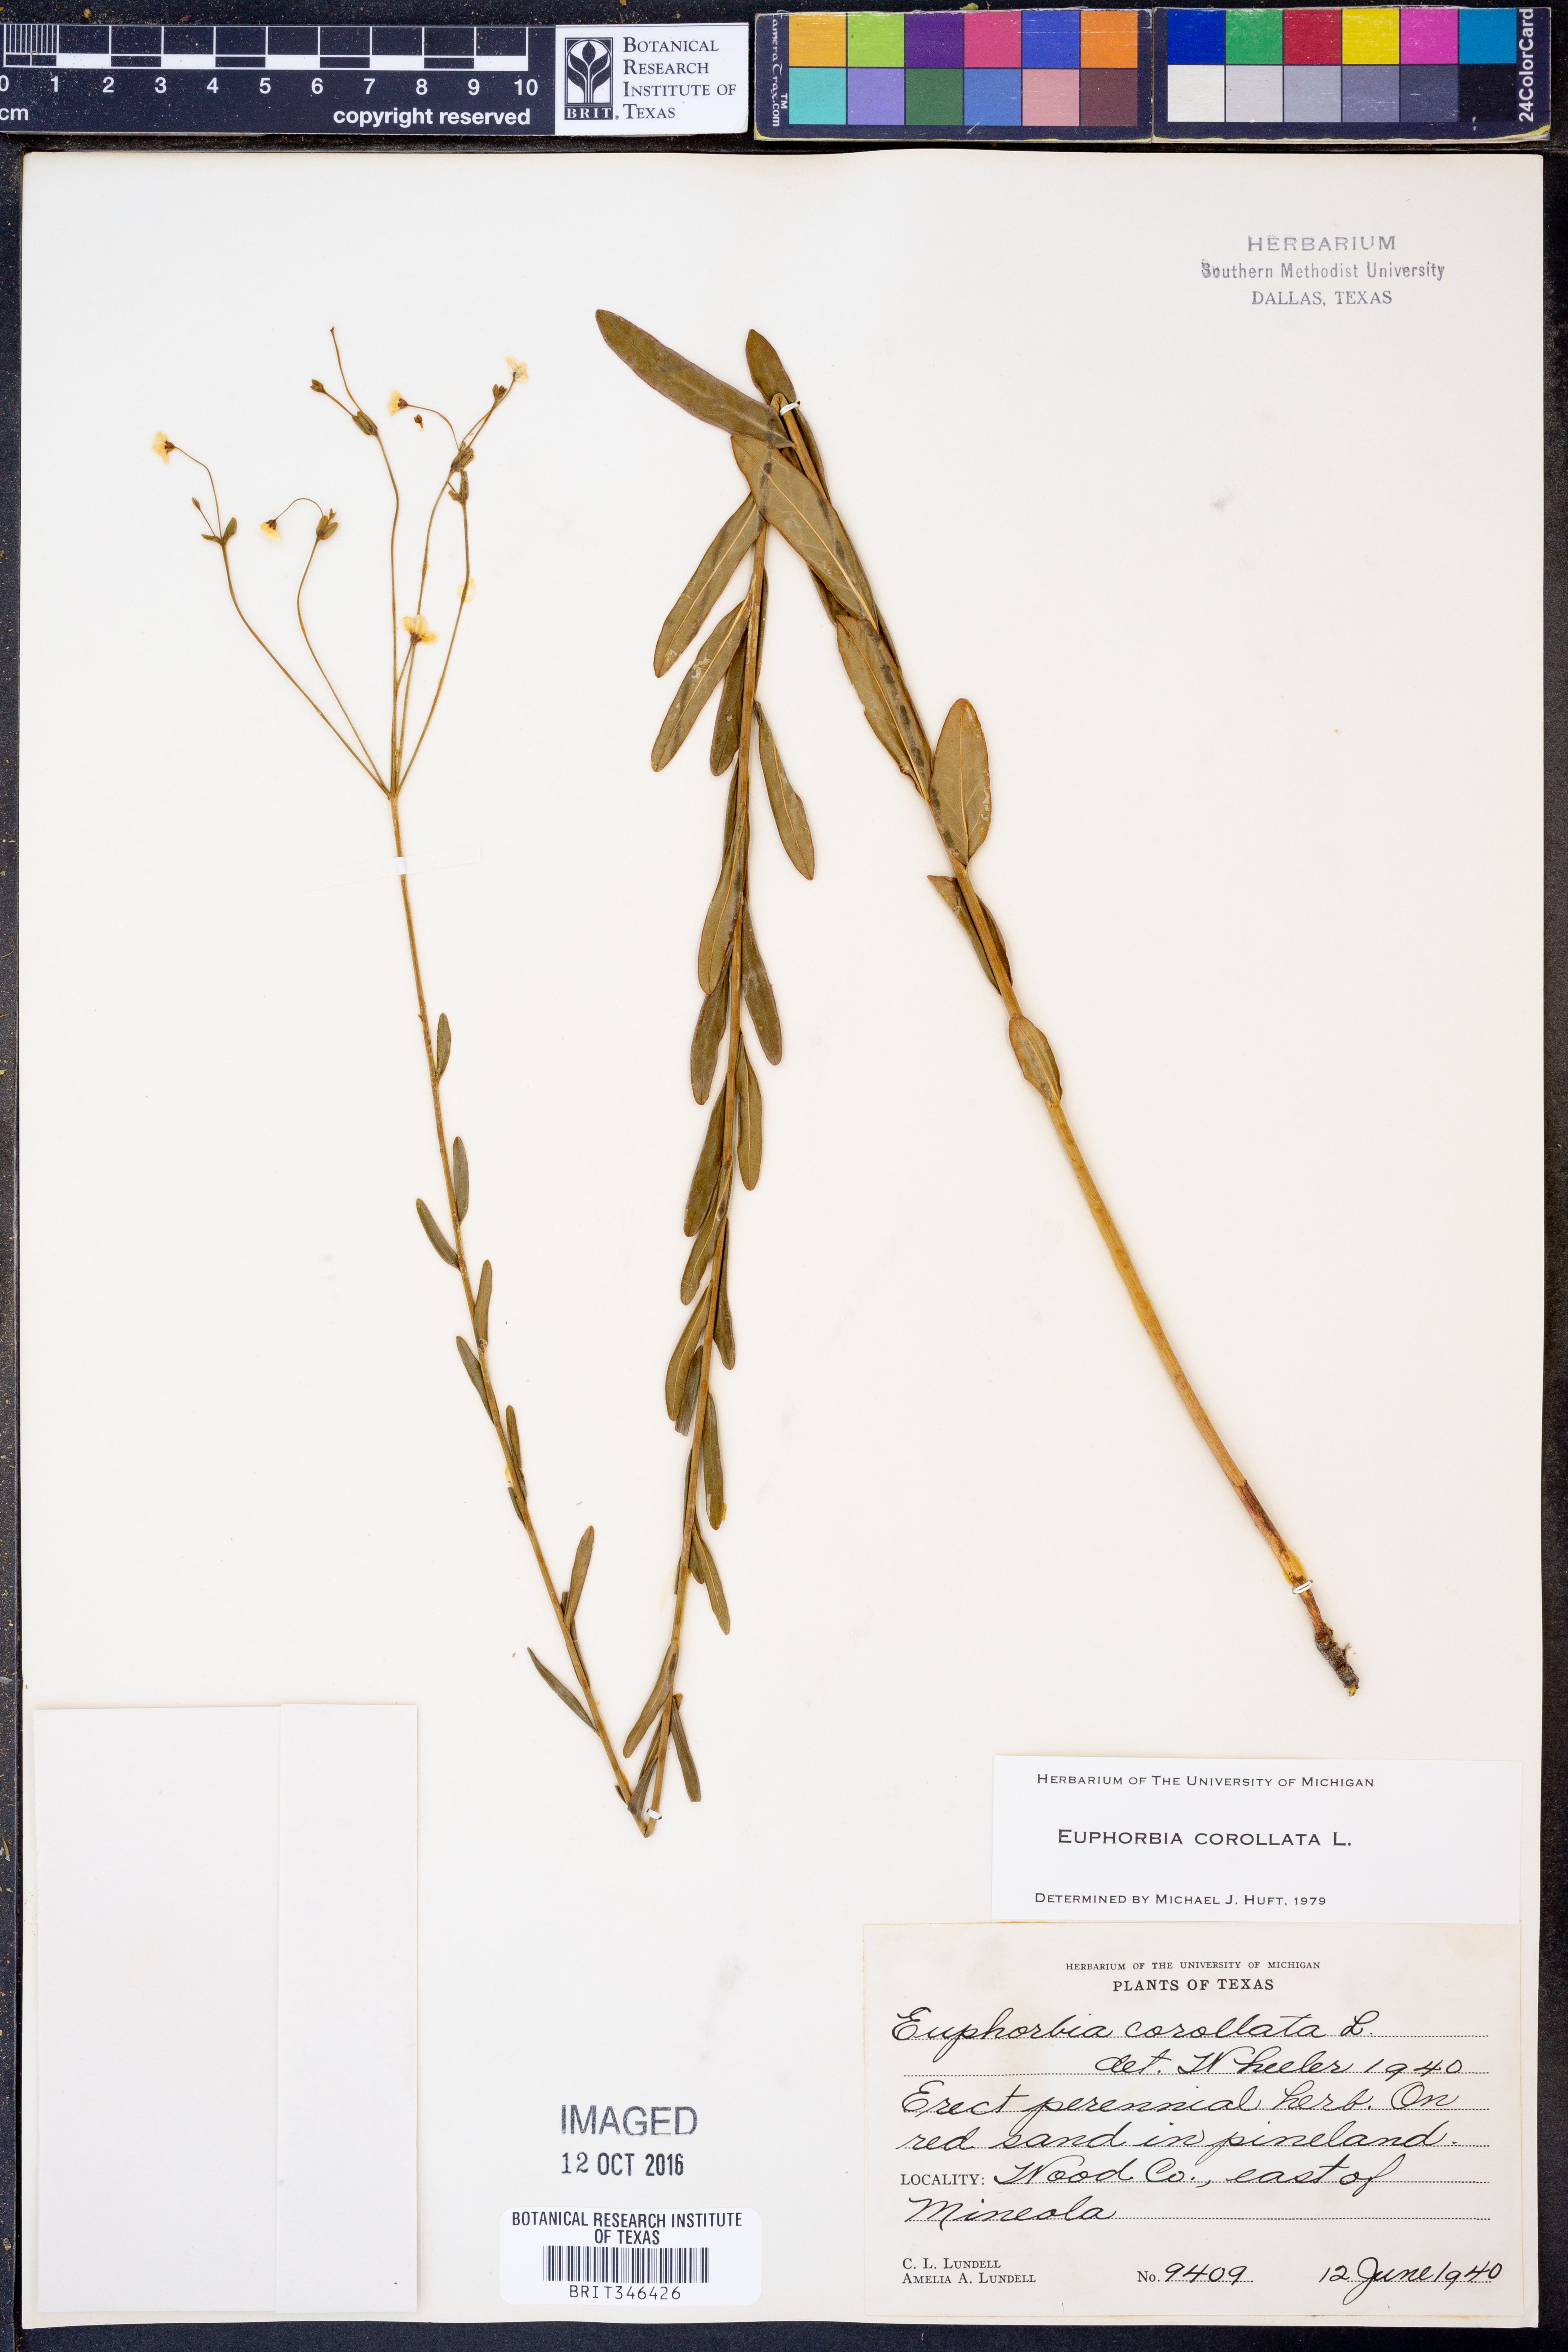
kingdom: Plantae
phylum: Tracheophyta
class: Magnoliopsida
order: Malpighiales
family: Euphorbiaceae
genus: Euphorbia
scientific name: Euphorbia corollata
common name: Flowering spurge
